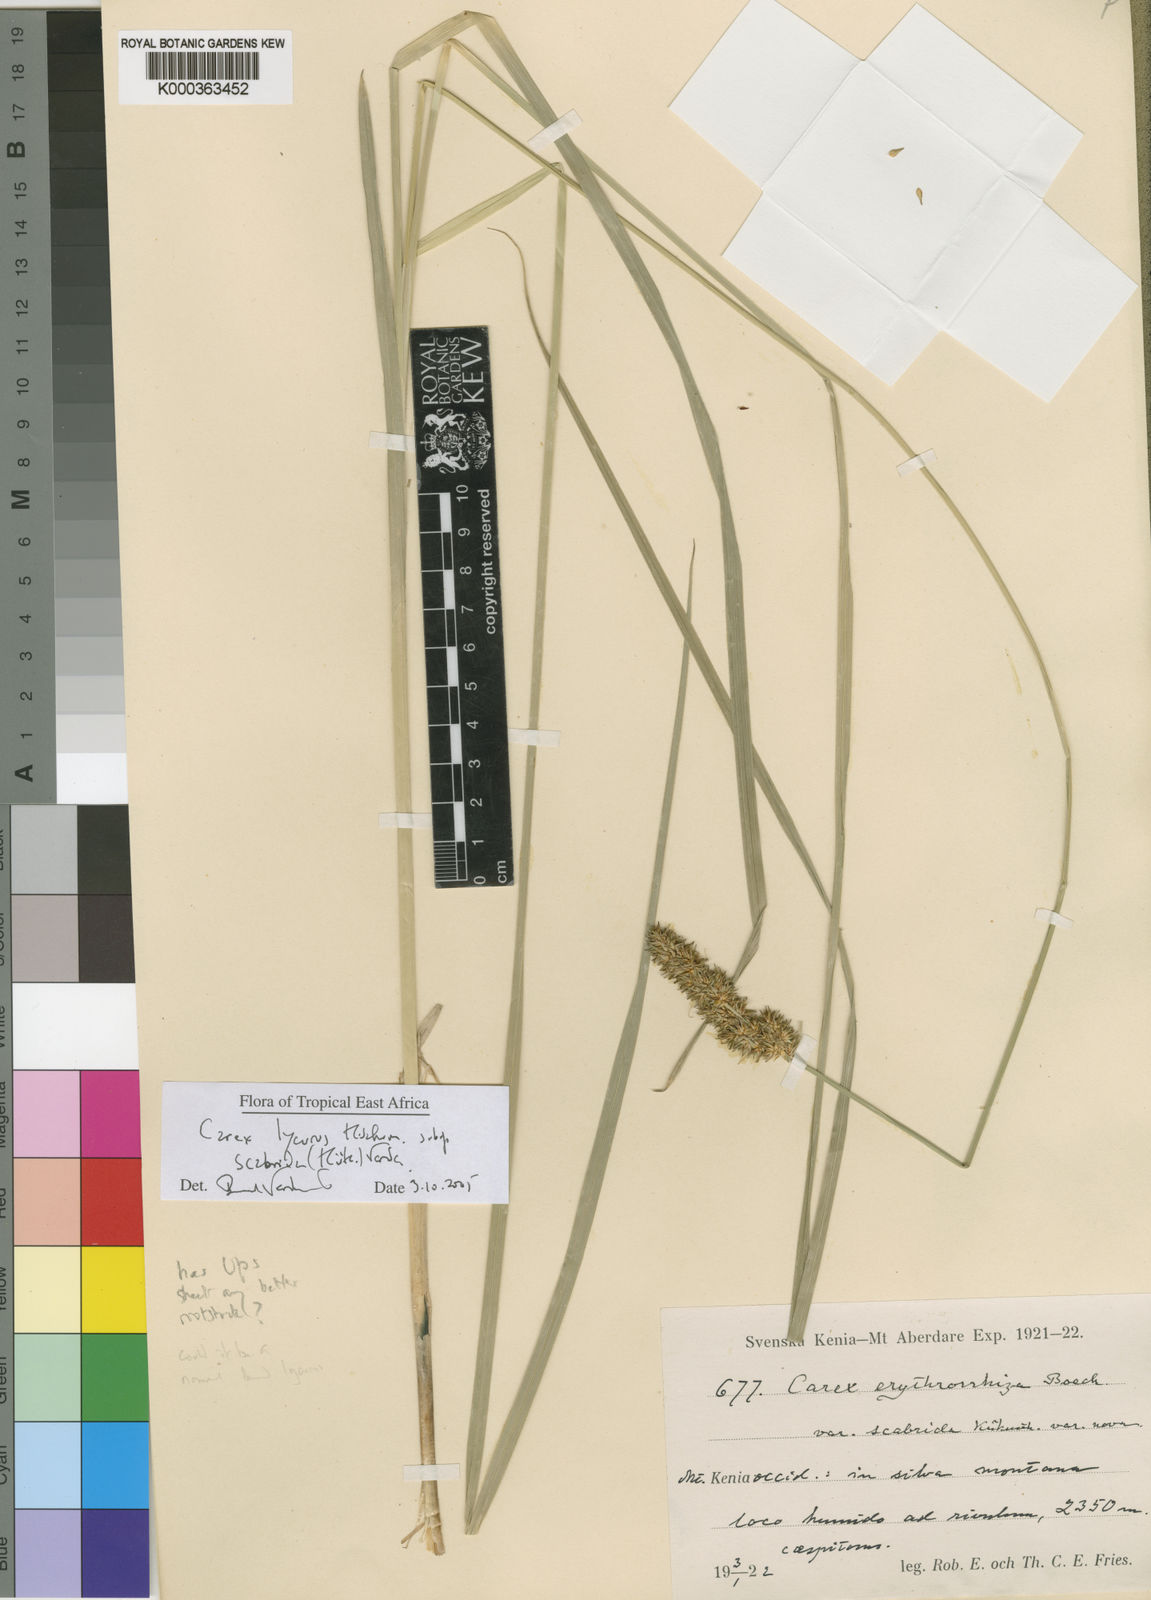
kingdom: Plantae
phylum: Tracheophyta
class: Liliopsida
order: Poales
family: Cyperaceae
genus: Carex
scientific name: Carex lycurus
